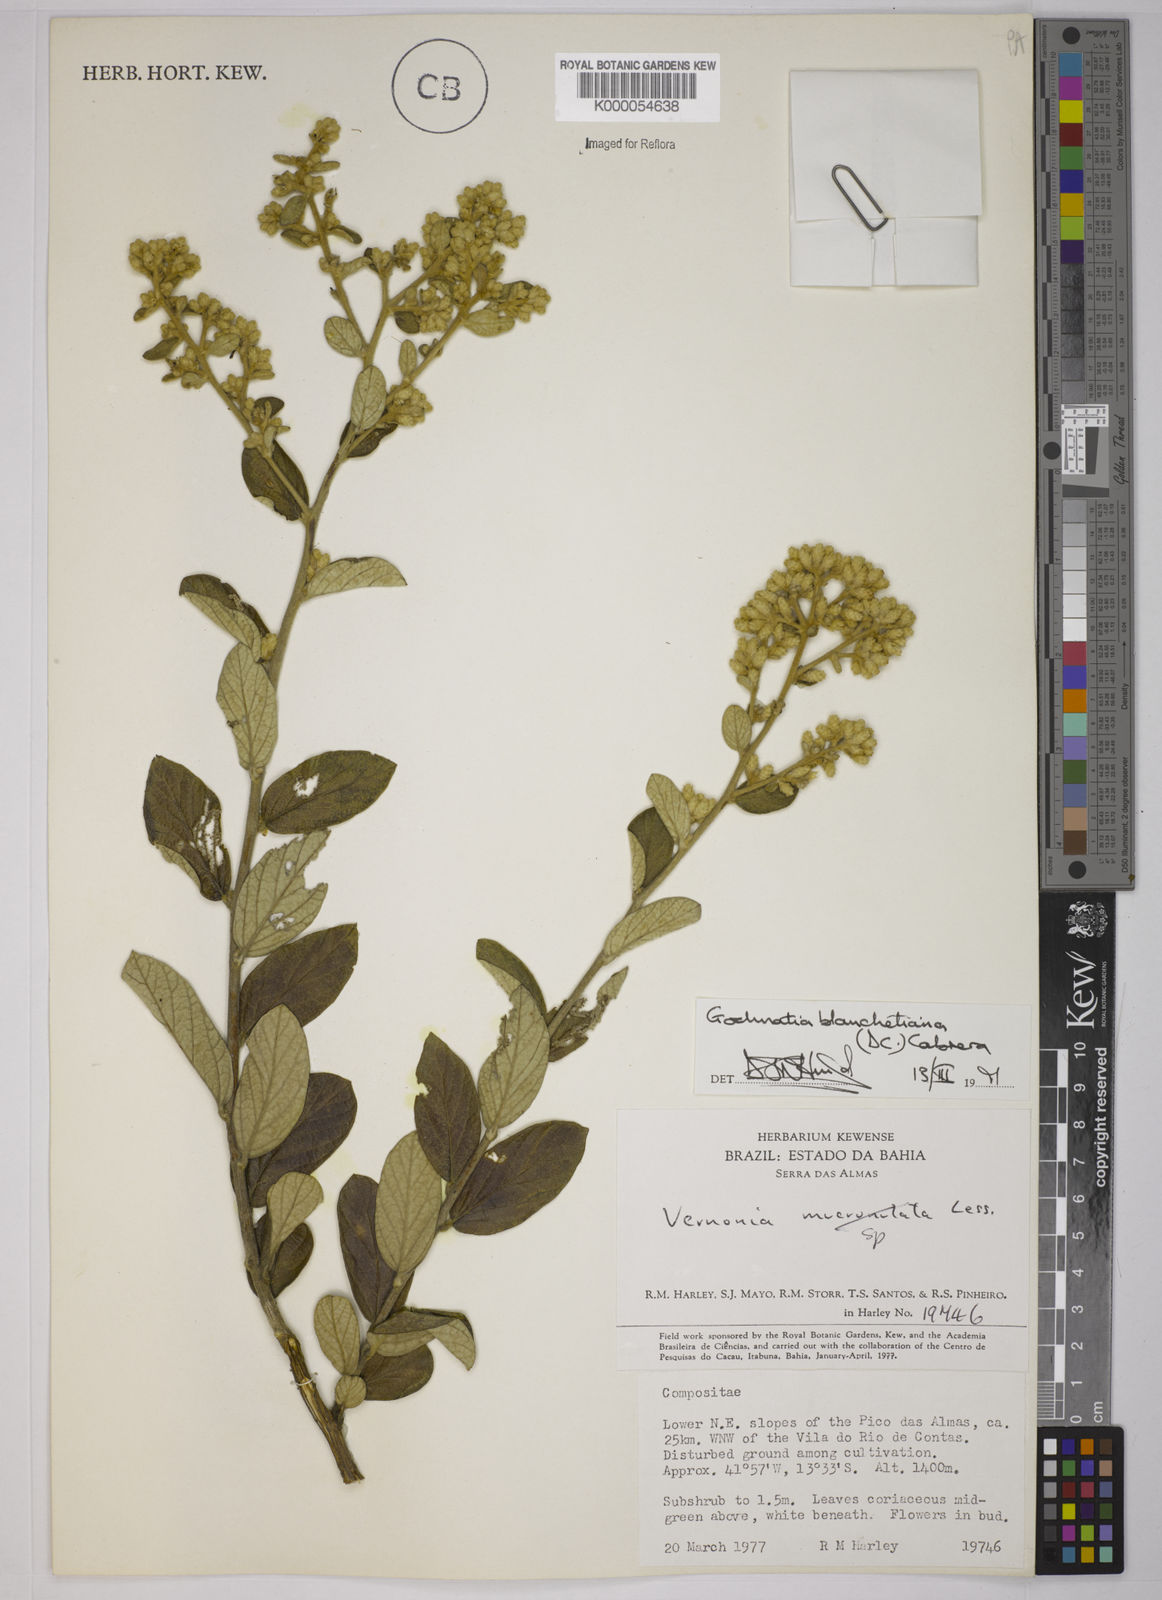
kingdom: Plantae
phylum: Tracheophyta
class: Magnoliopsida
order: Asterales
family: Asteraceae
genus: Moquiniastrum
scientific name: Moquiniastrum blanchetianum
